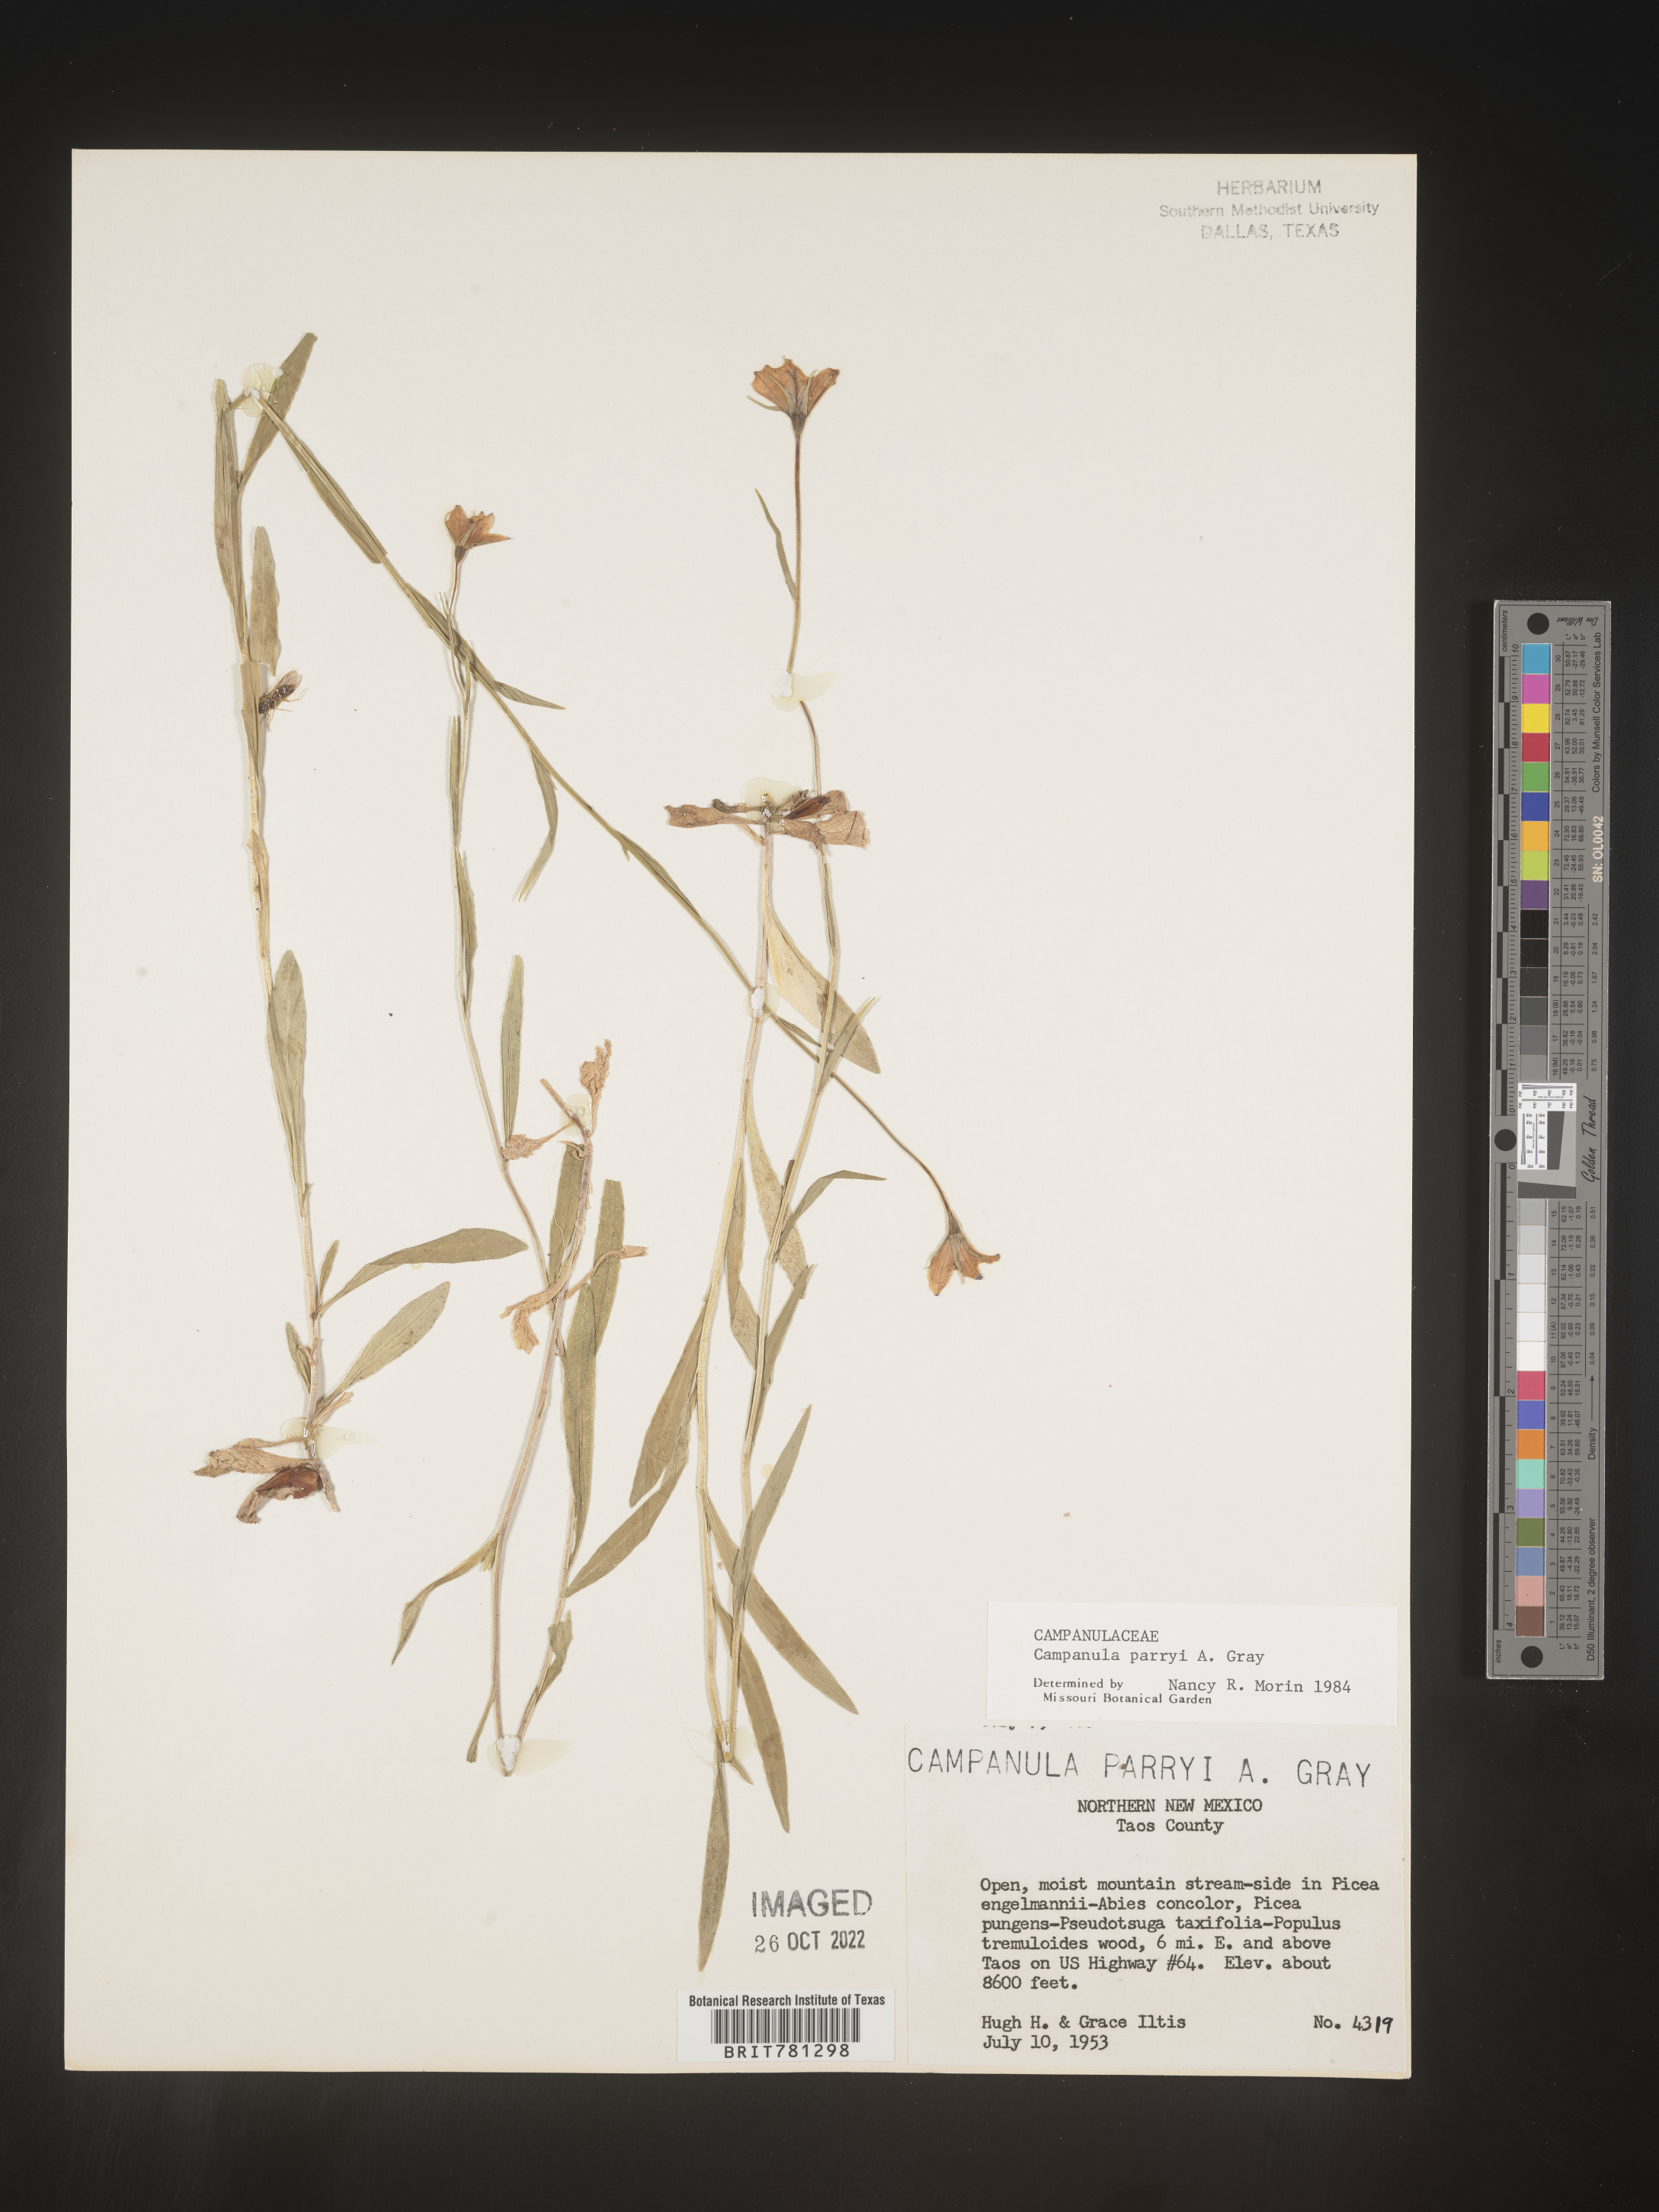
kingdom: Plantae
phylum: Tracheophyta
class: Magnoliopsida
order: Asterales
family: Campanulaceae
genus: Campanula
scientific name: Campanula parryi
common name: Rocky mountain bellflower
